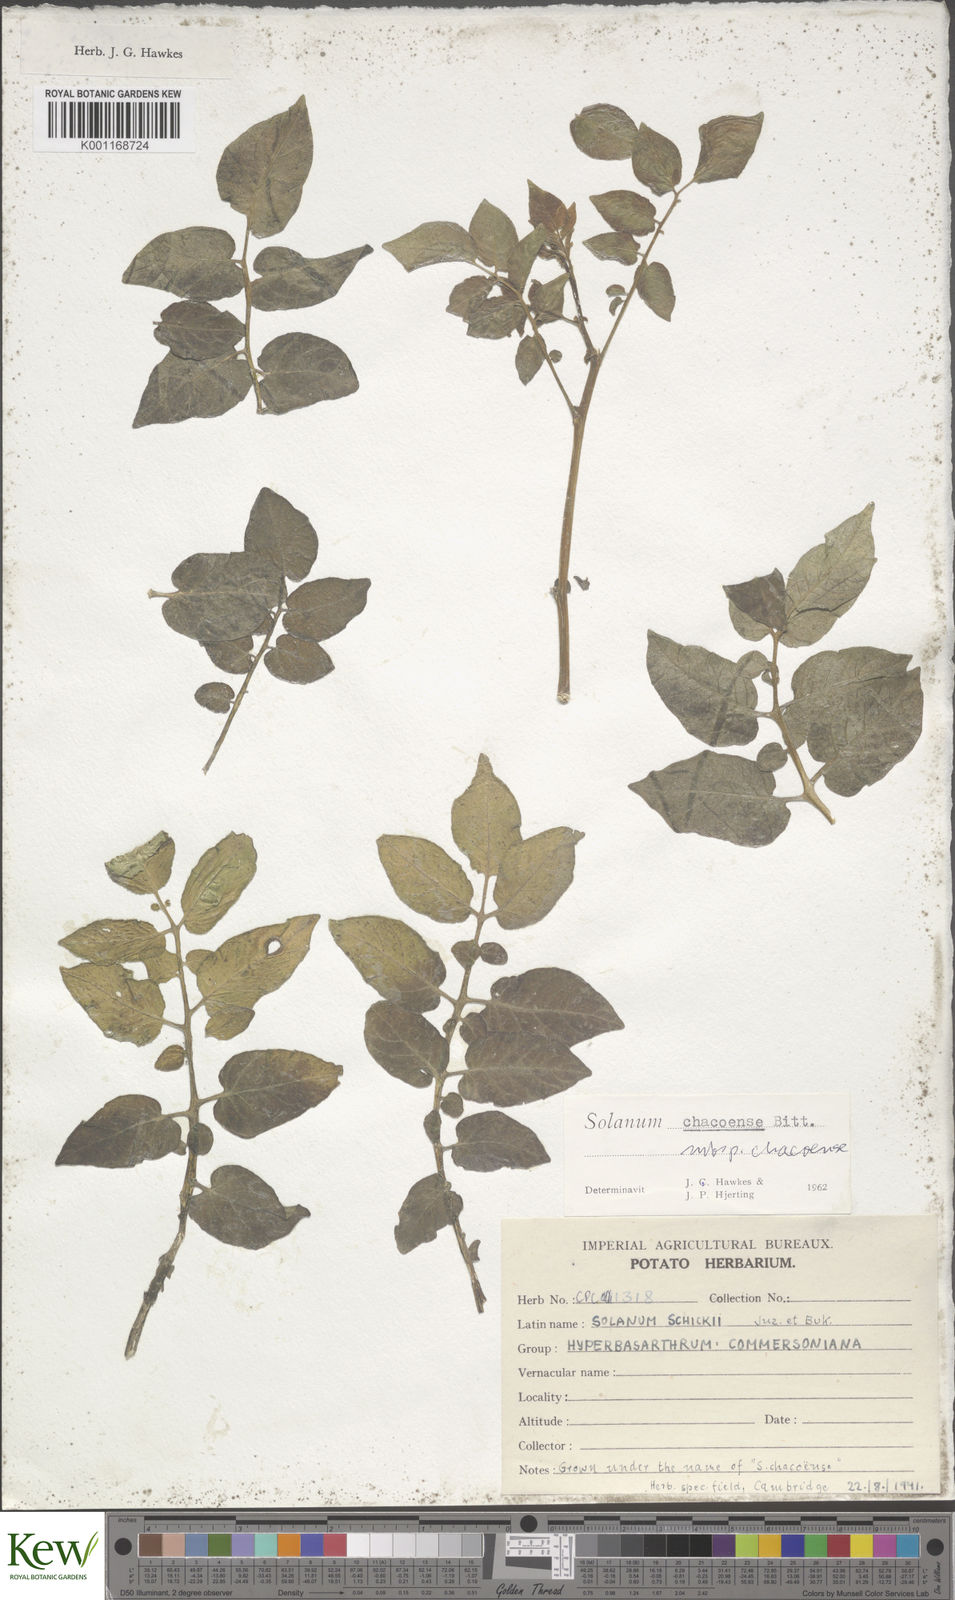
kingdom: Plantae
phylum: Tracheophyta
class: Magnoliopsida
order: Solanales
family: Solanaceae
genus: Solanum
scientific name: Solanum chacoense
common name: Chaco potato
